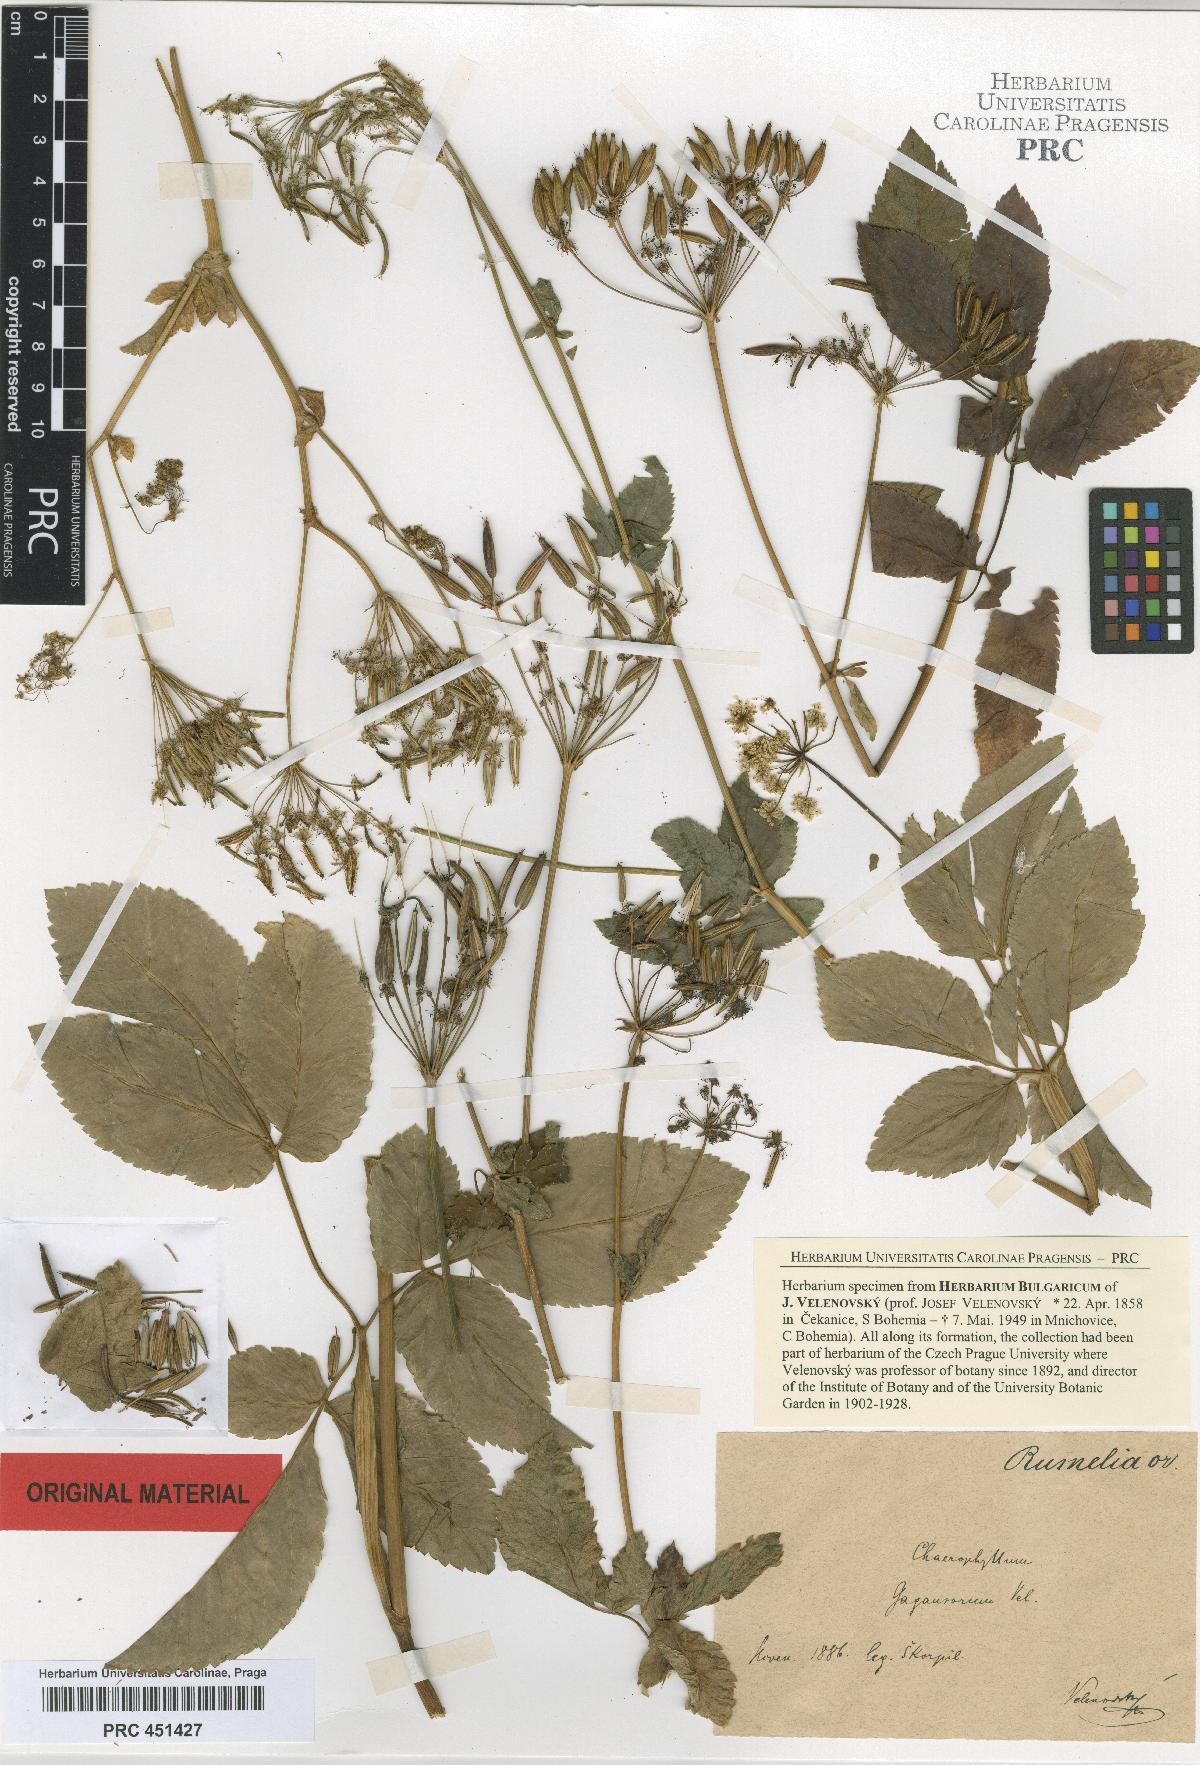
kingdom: Plantae
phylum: Tracheophyta
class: Magnoliopsida
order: Apiales
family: Apiaceae
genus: Chaerophyllum
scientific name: Chaerophyllum gagausorum
